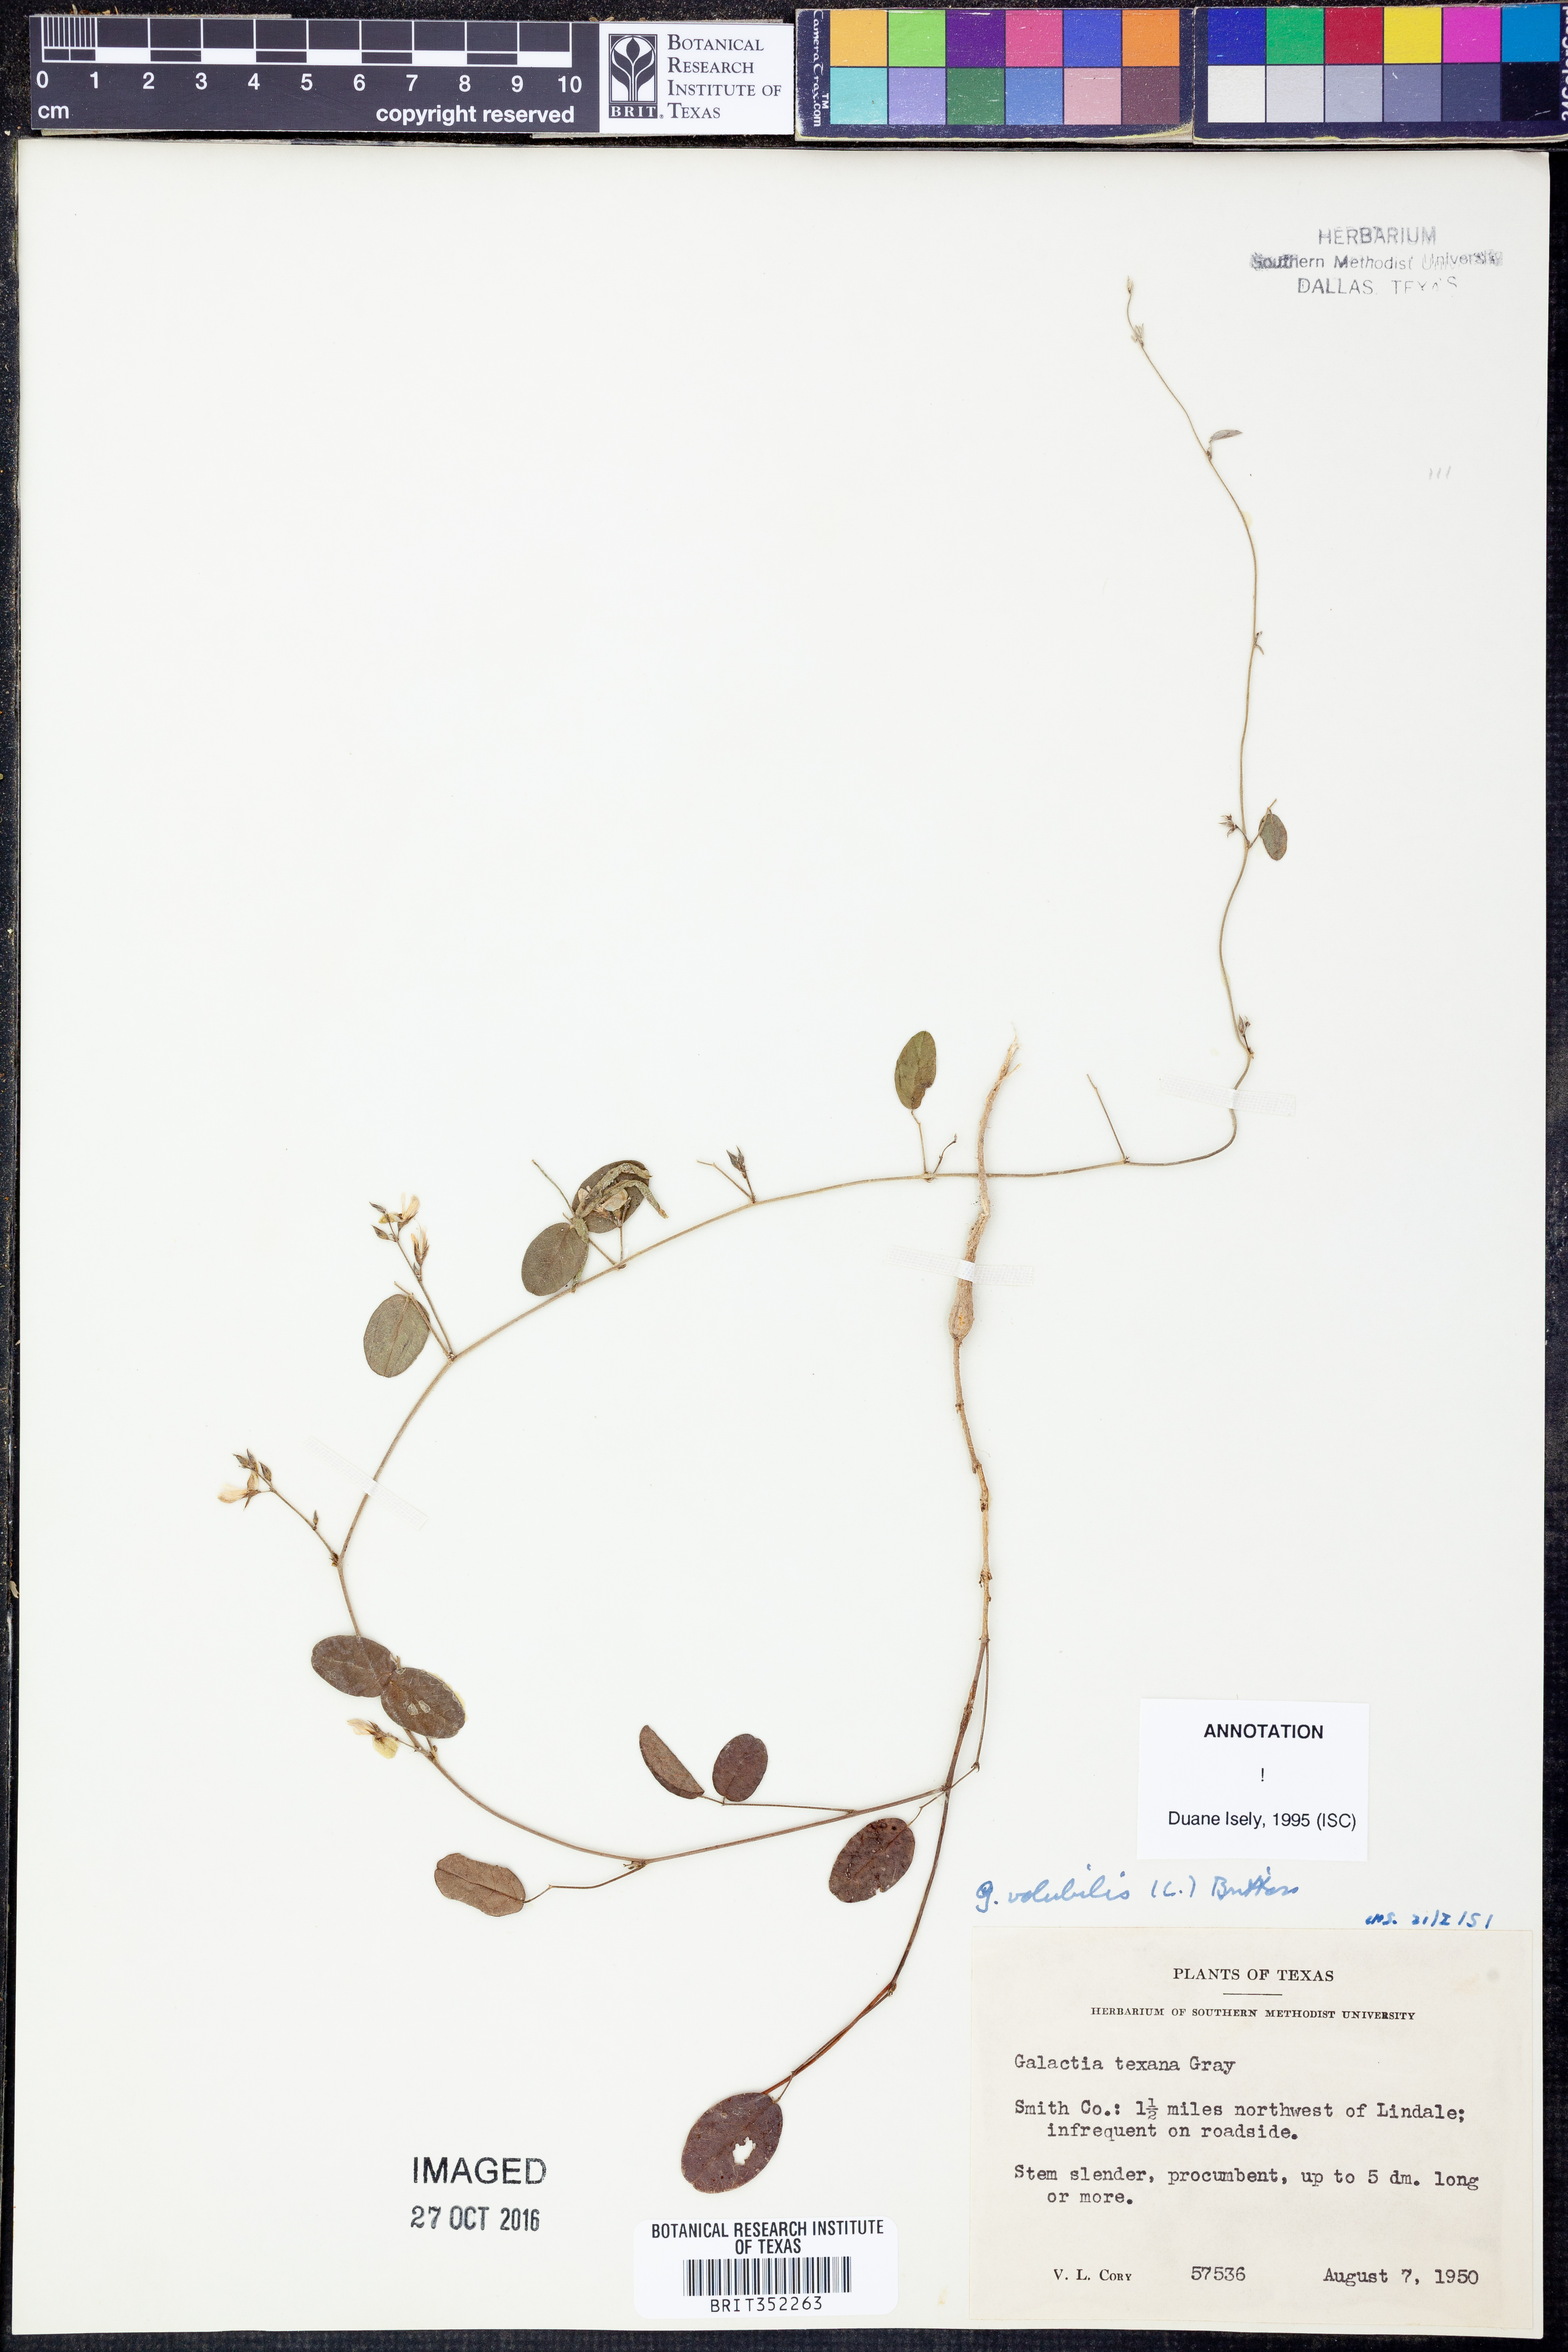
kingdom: Plantae
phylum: Tracheophyta
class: Magnoliopsida
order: Fabales
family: Fabaceae
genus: Galactia
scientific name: Galactia volubilis
